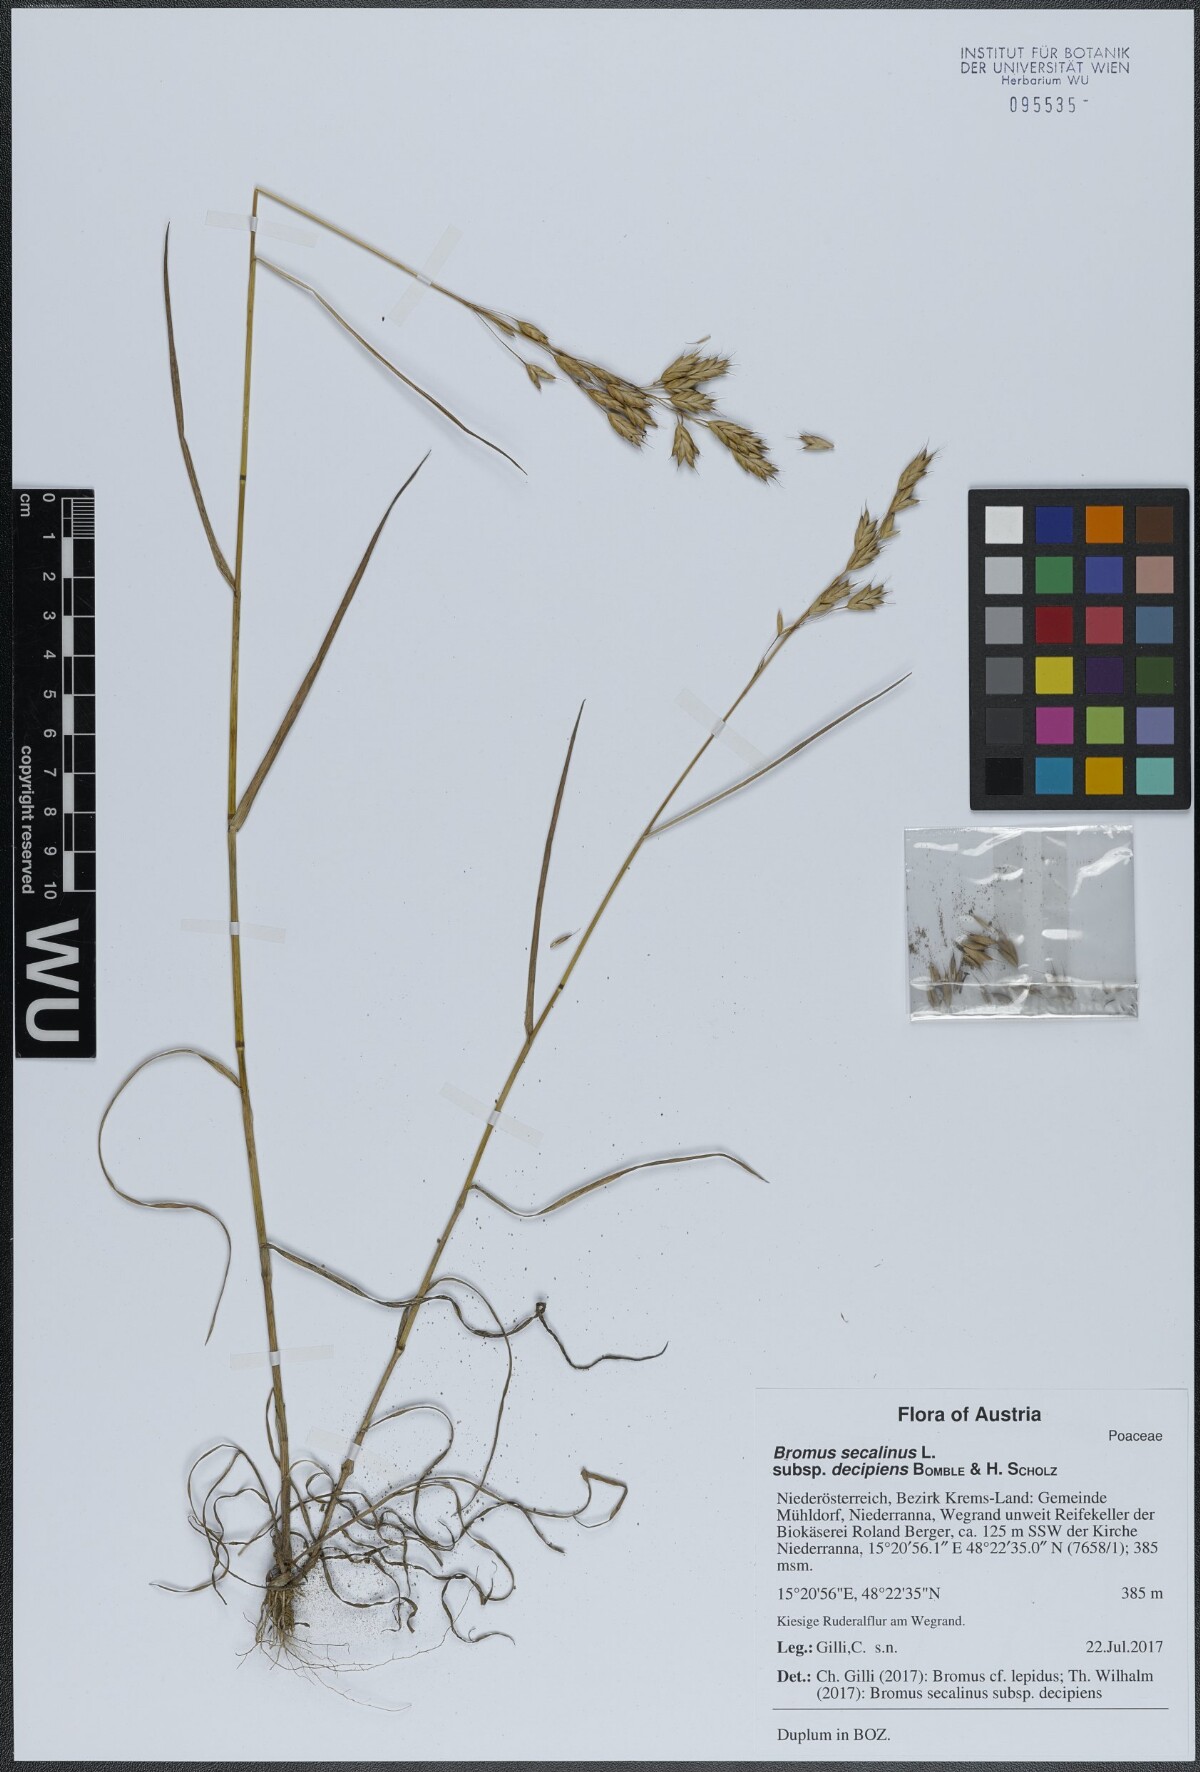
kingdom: Plantae
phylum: Tracheophyta
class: Liliopsida
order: Poales
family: Poaceae
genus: Bromus
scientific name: Bromus commutatus
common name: Meadow brome
